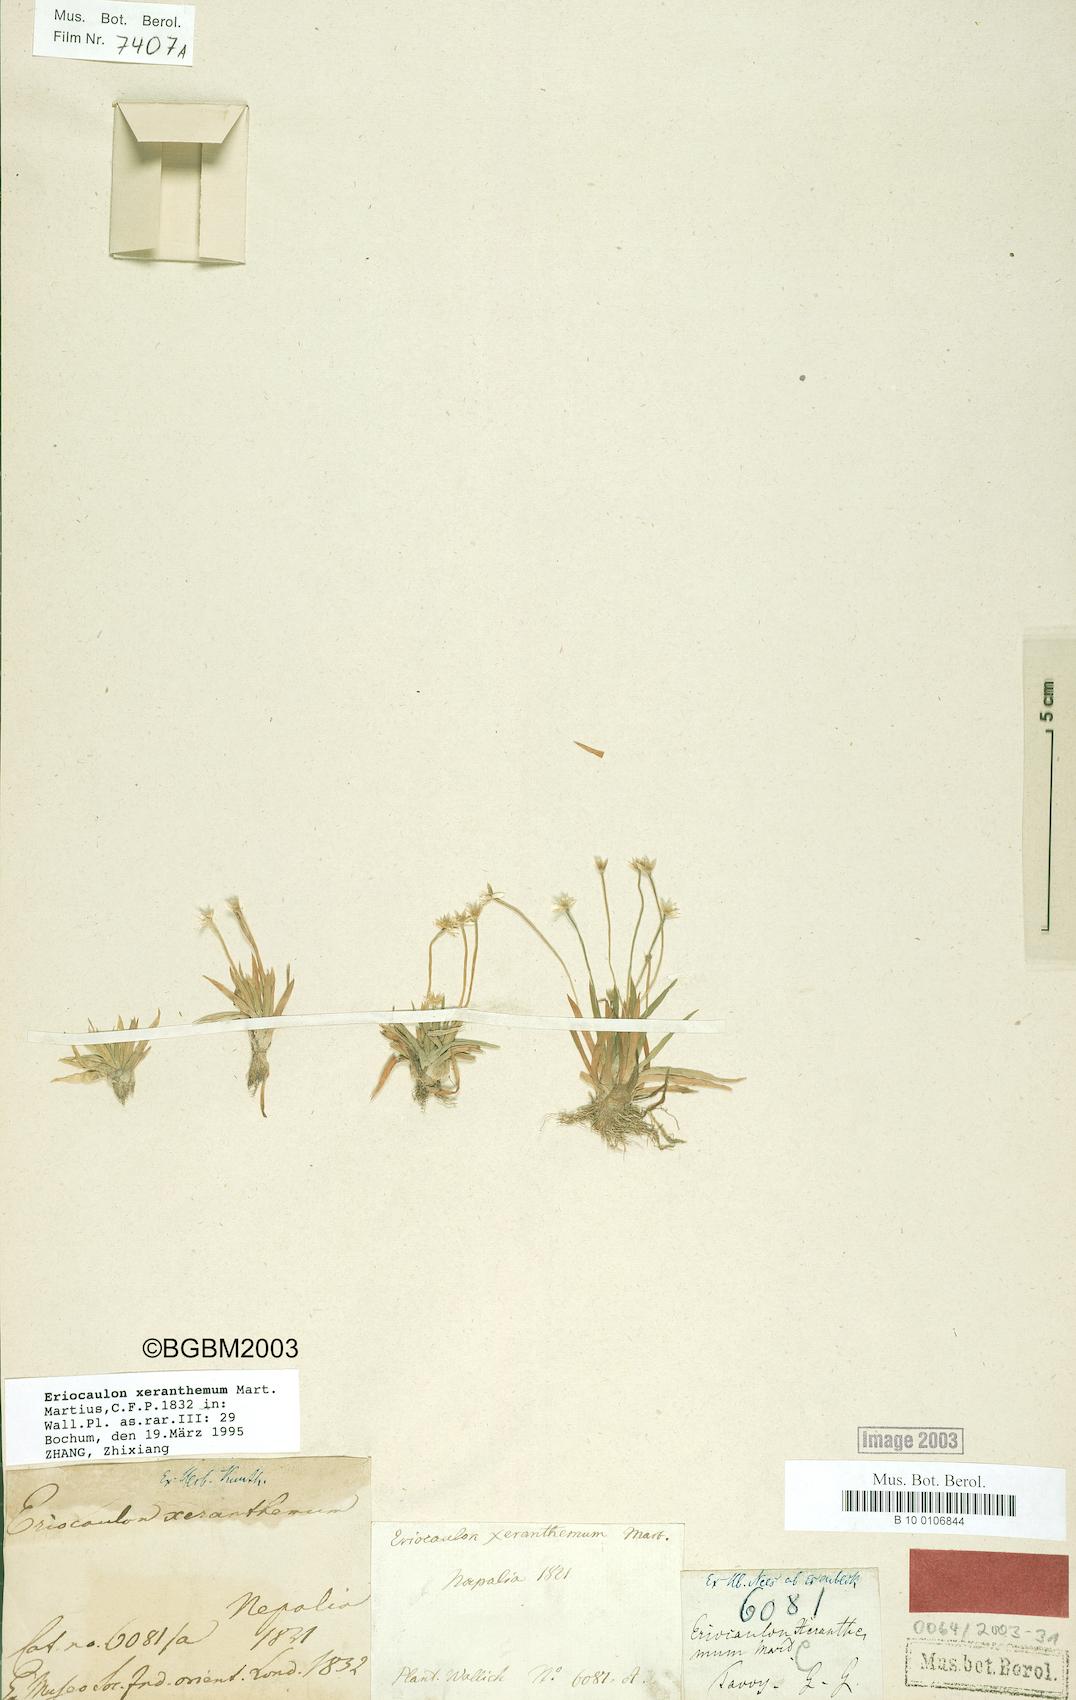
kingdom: Plantae
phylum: Tracheophyta
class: Liliopsida
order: Poales
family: Eriocaulaceae
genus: Eriocaulon
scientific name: Eriocaulon xeranthemum
